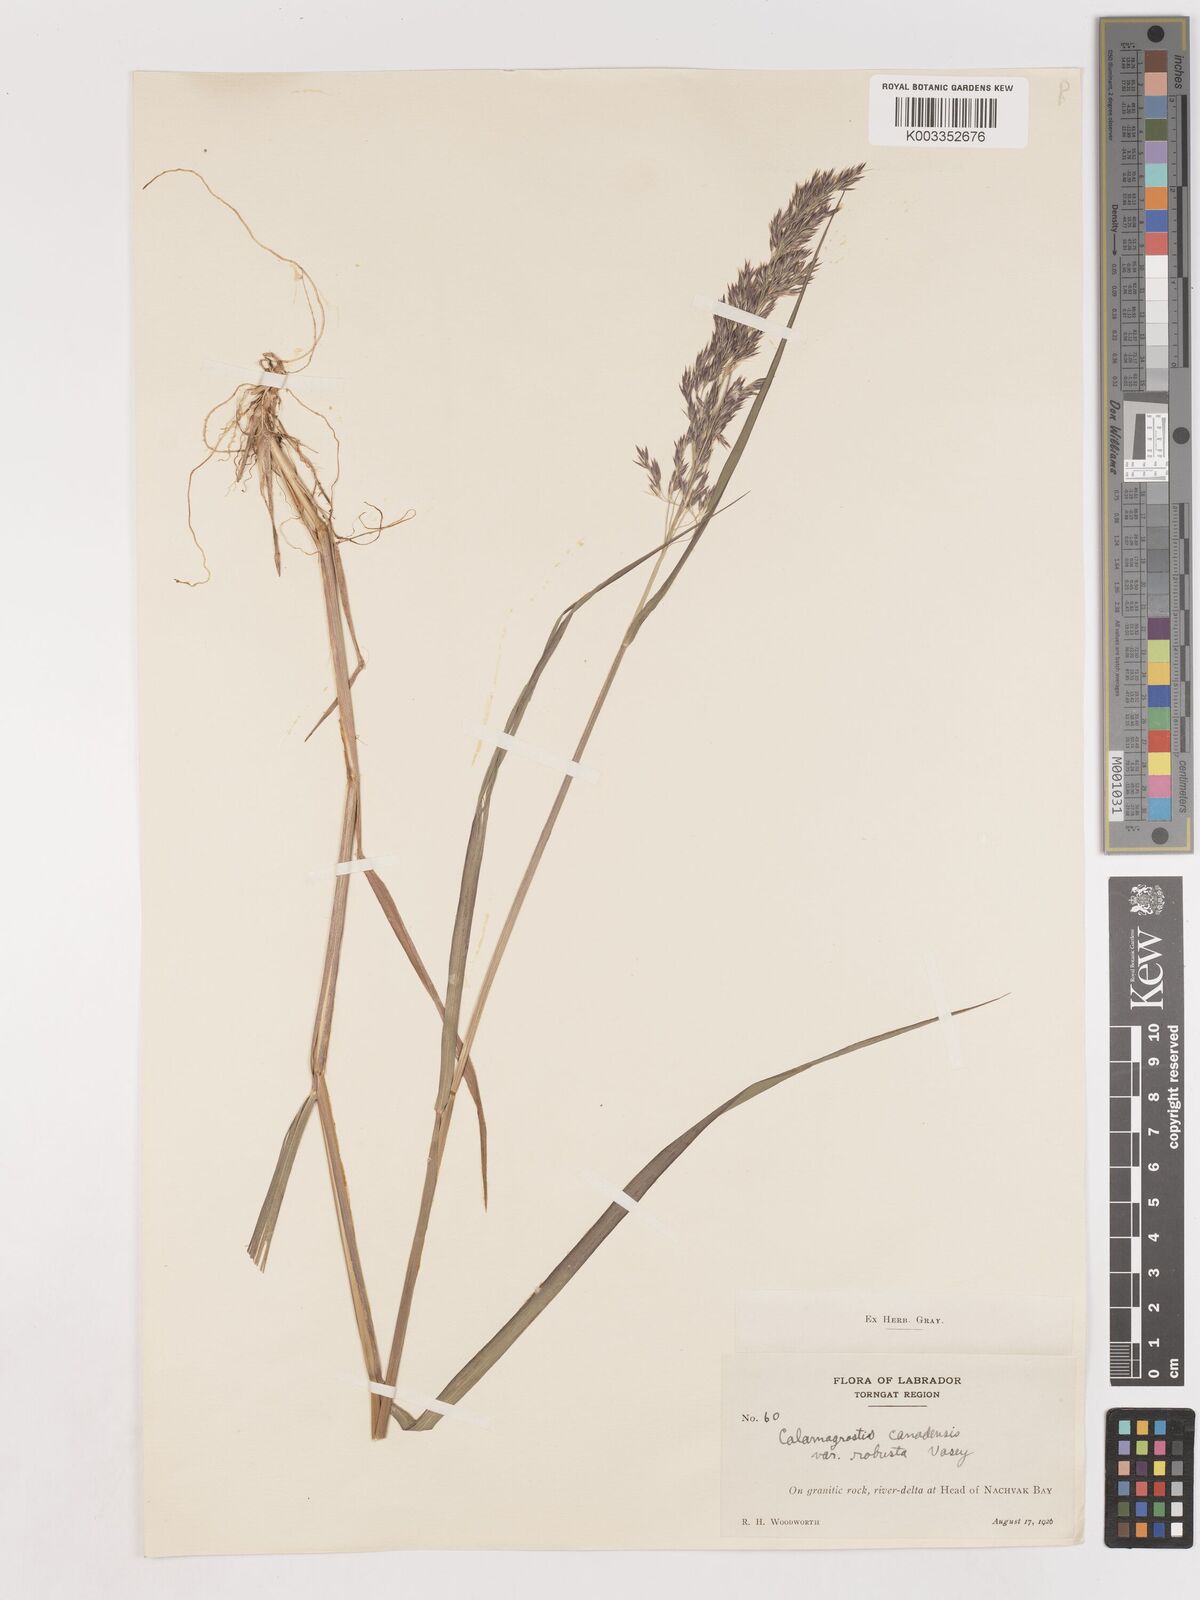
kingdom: Plantae
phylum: Tracheophyta
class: Liliopsida
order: Poales
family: Poaceae
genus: Calamagrostis
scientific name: Calamagrostis canadensis
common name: Canada bluejoint
